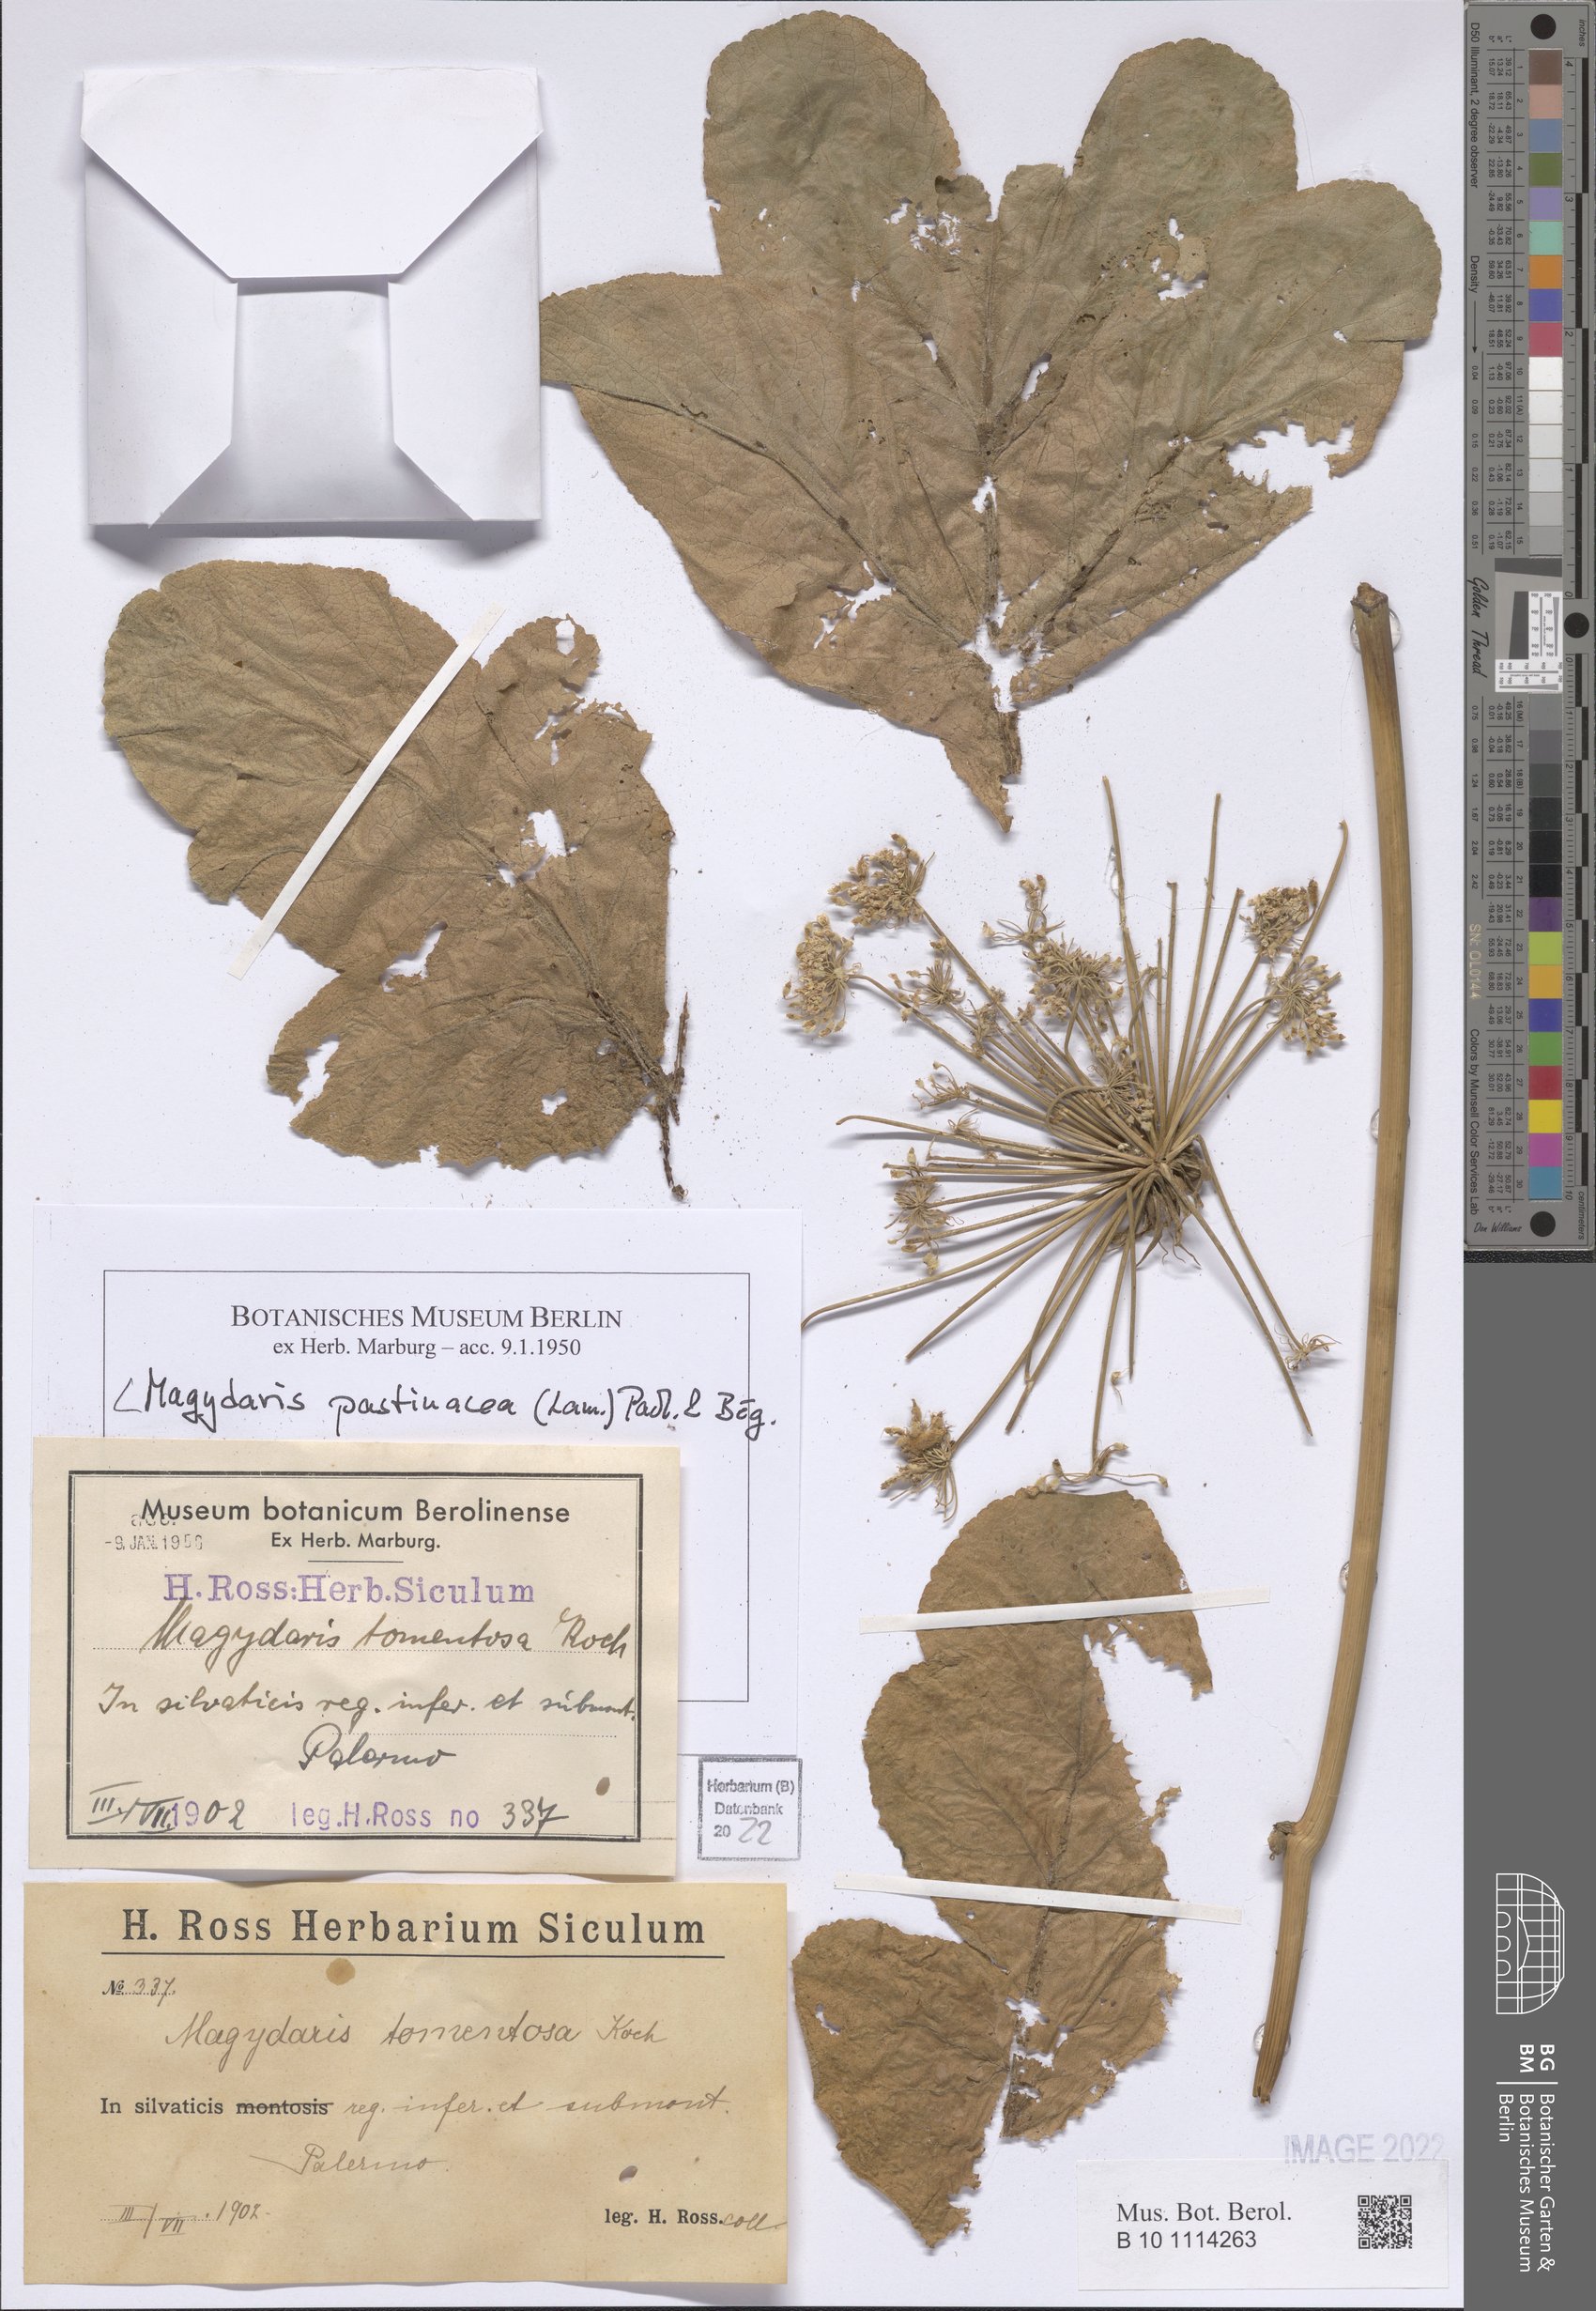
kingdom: Plantae
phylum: Tracheophyta
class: Magnoliopsida
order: Apiales
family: Apiaceae
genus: Magydaris
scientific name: Magydaris pastinacea
